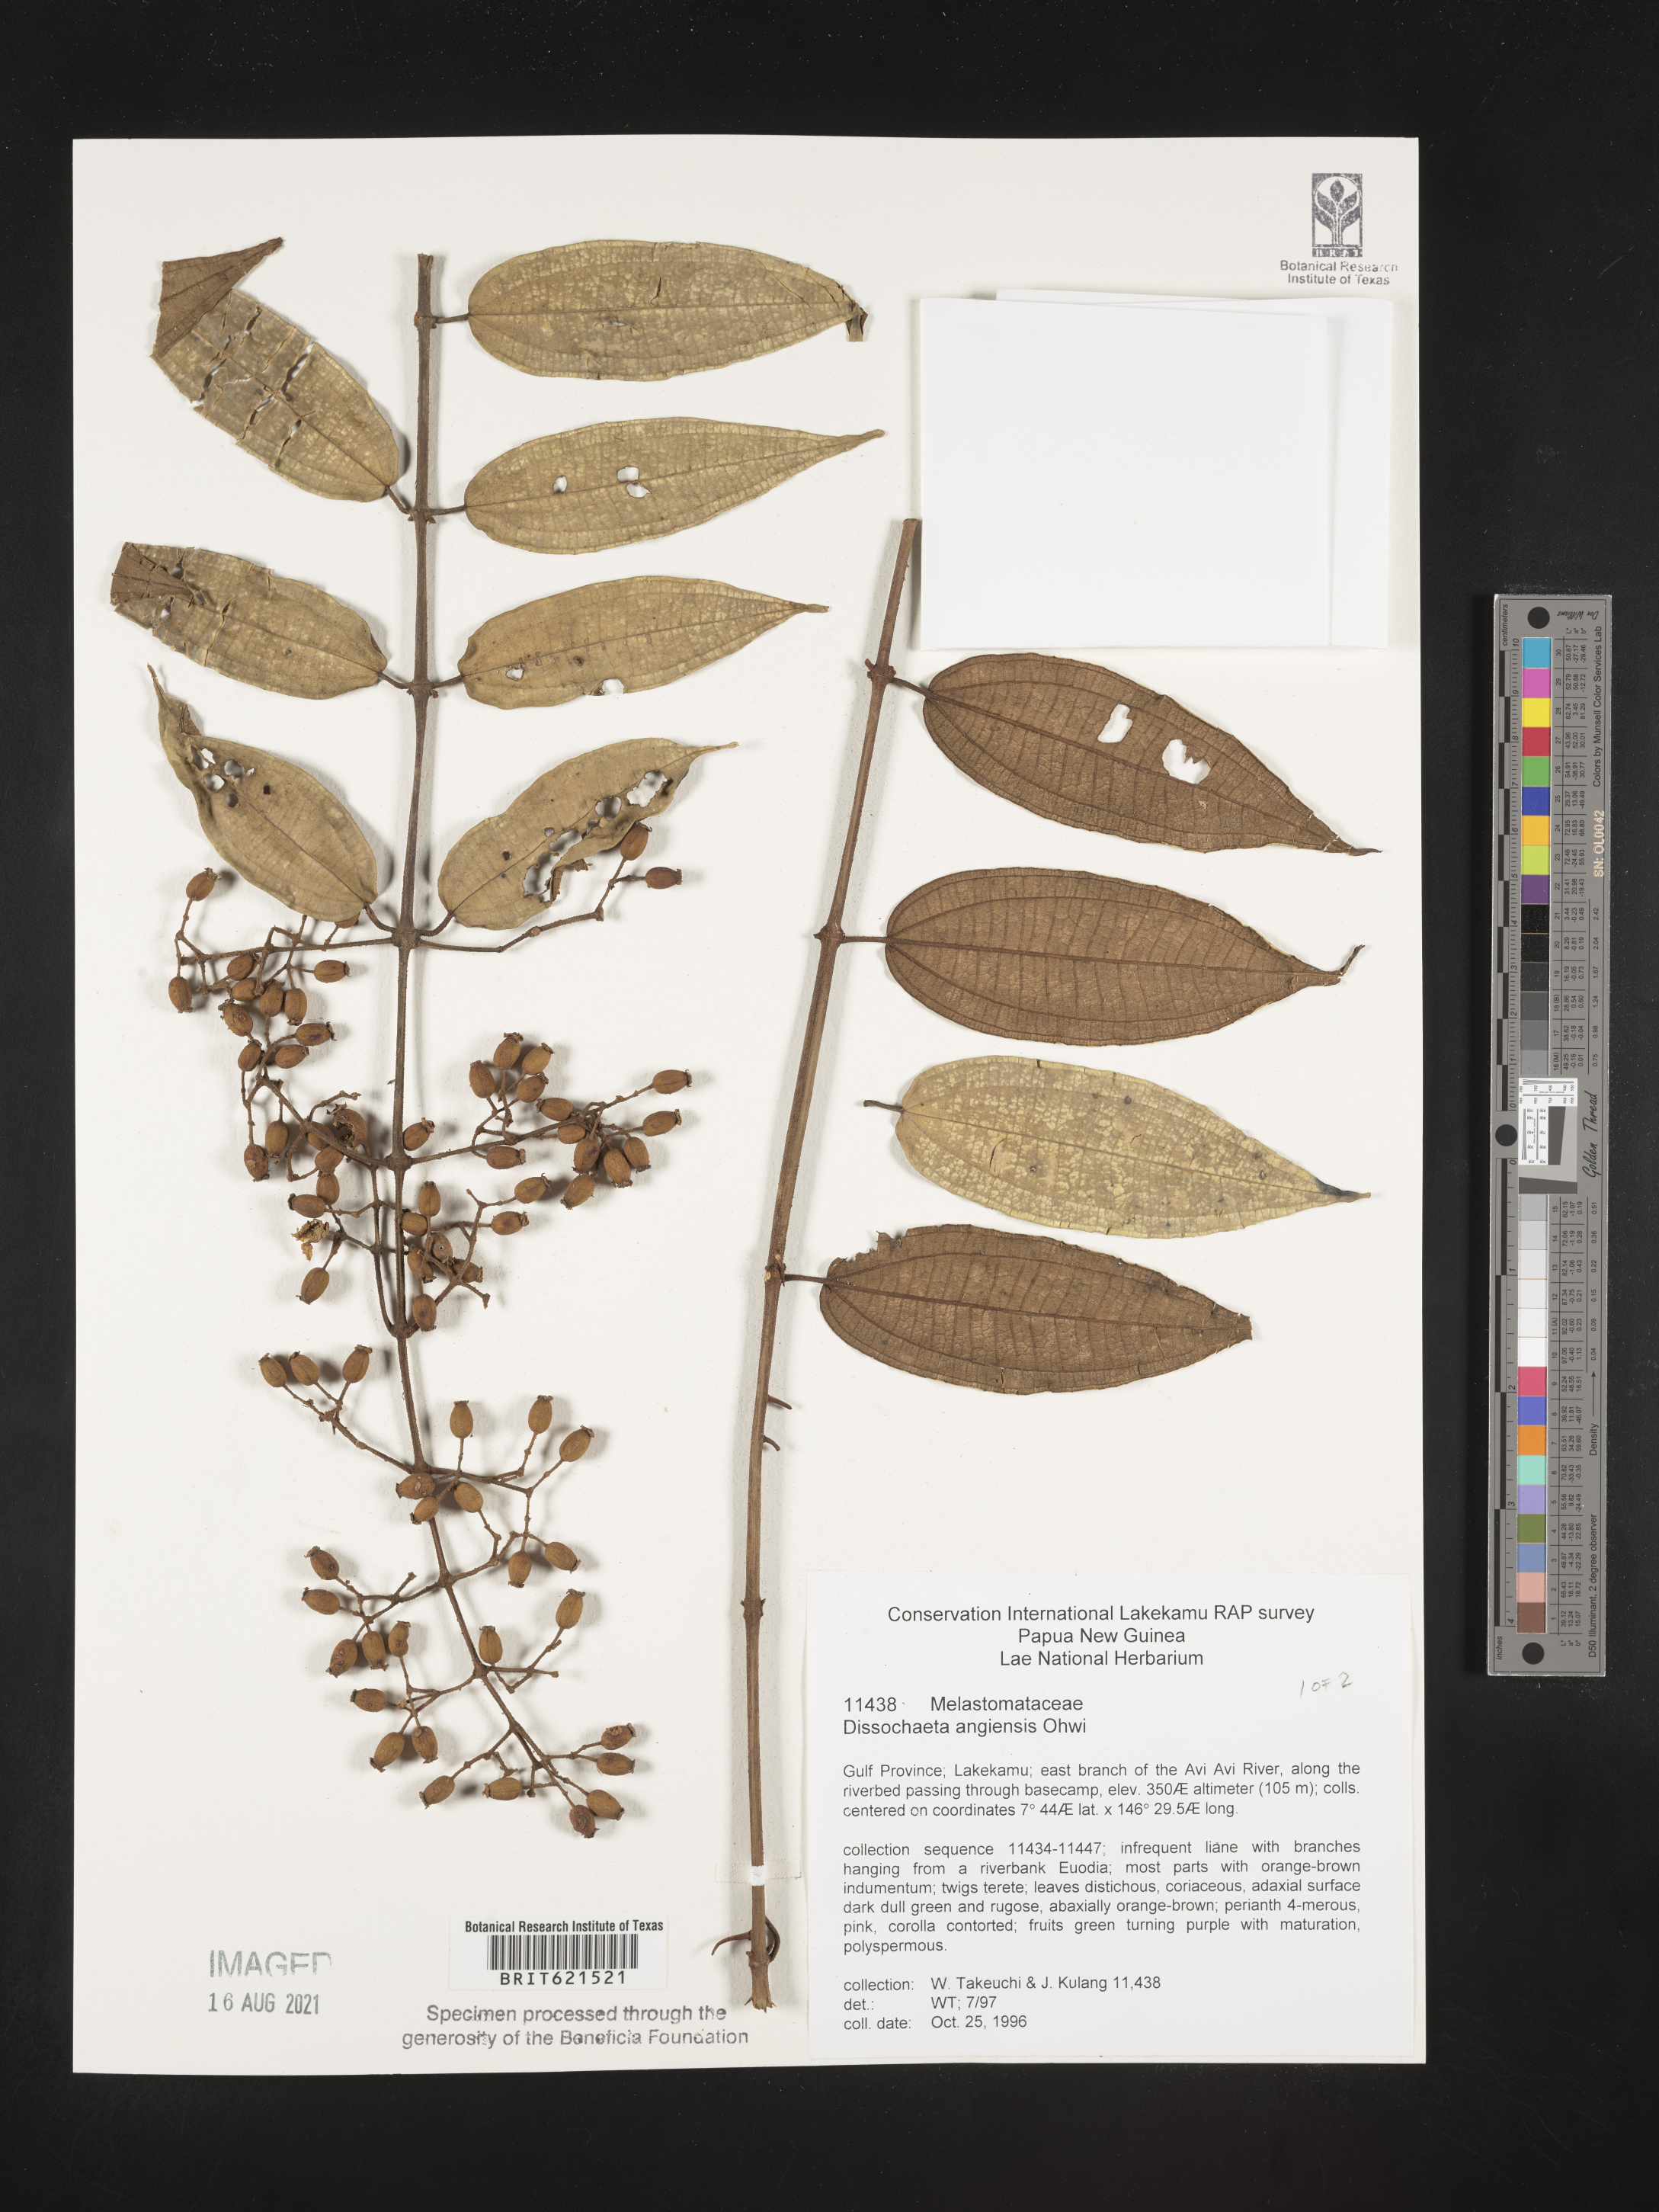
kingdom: Plantae
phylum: Tracheophyta
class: Magnoliopsida
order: Myrtales
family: Melastomataceae
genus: Dissochaeta
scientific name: Dissochaeta angiensis
